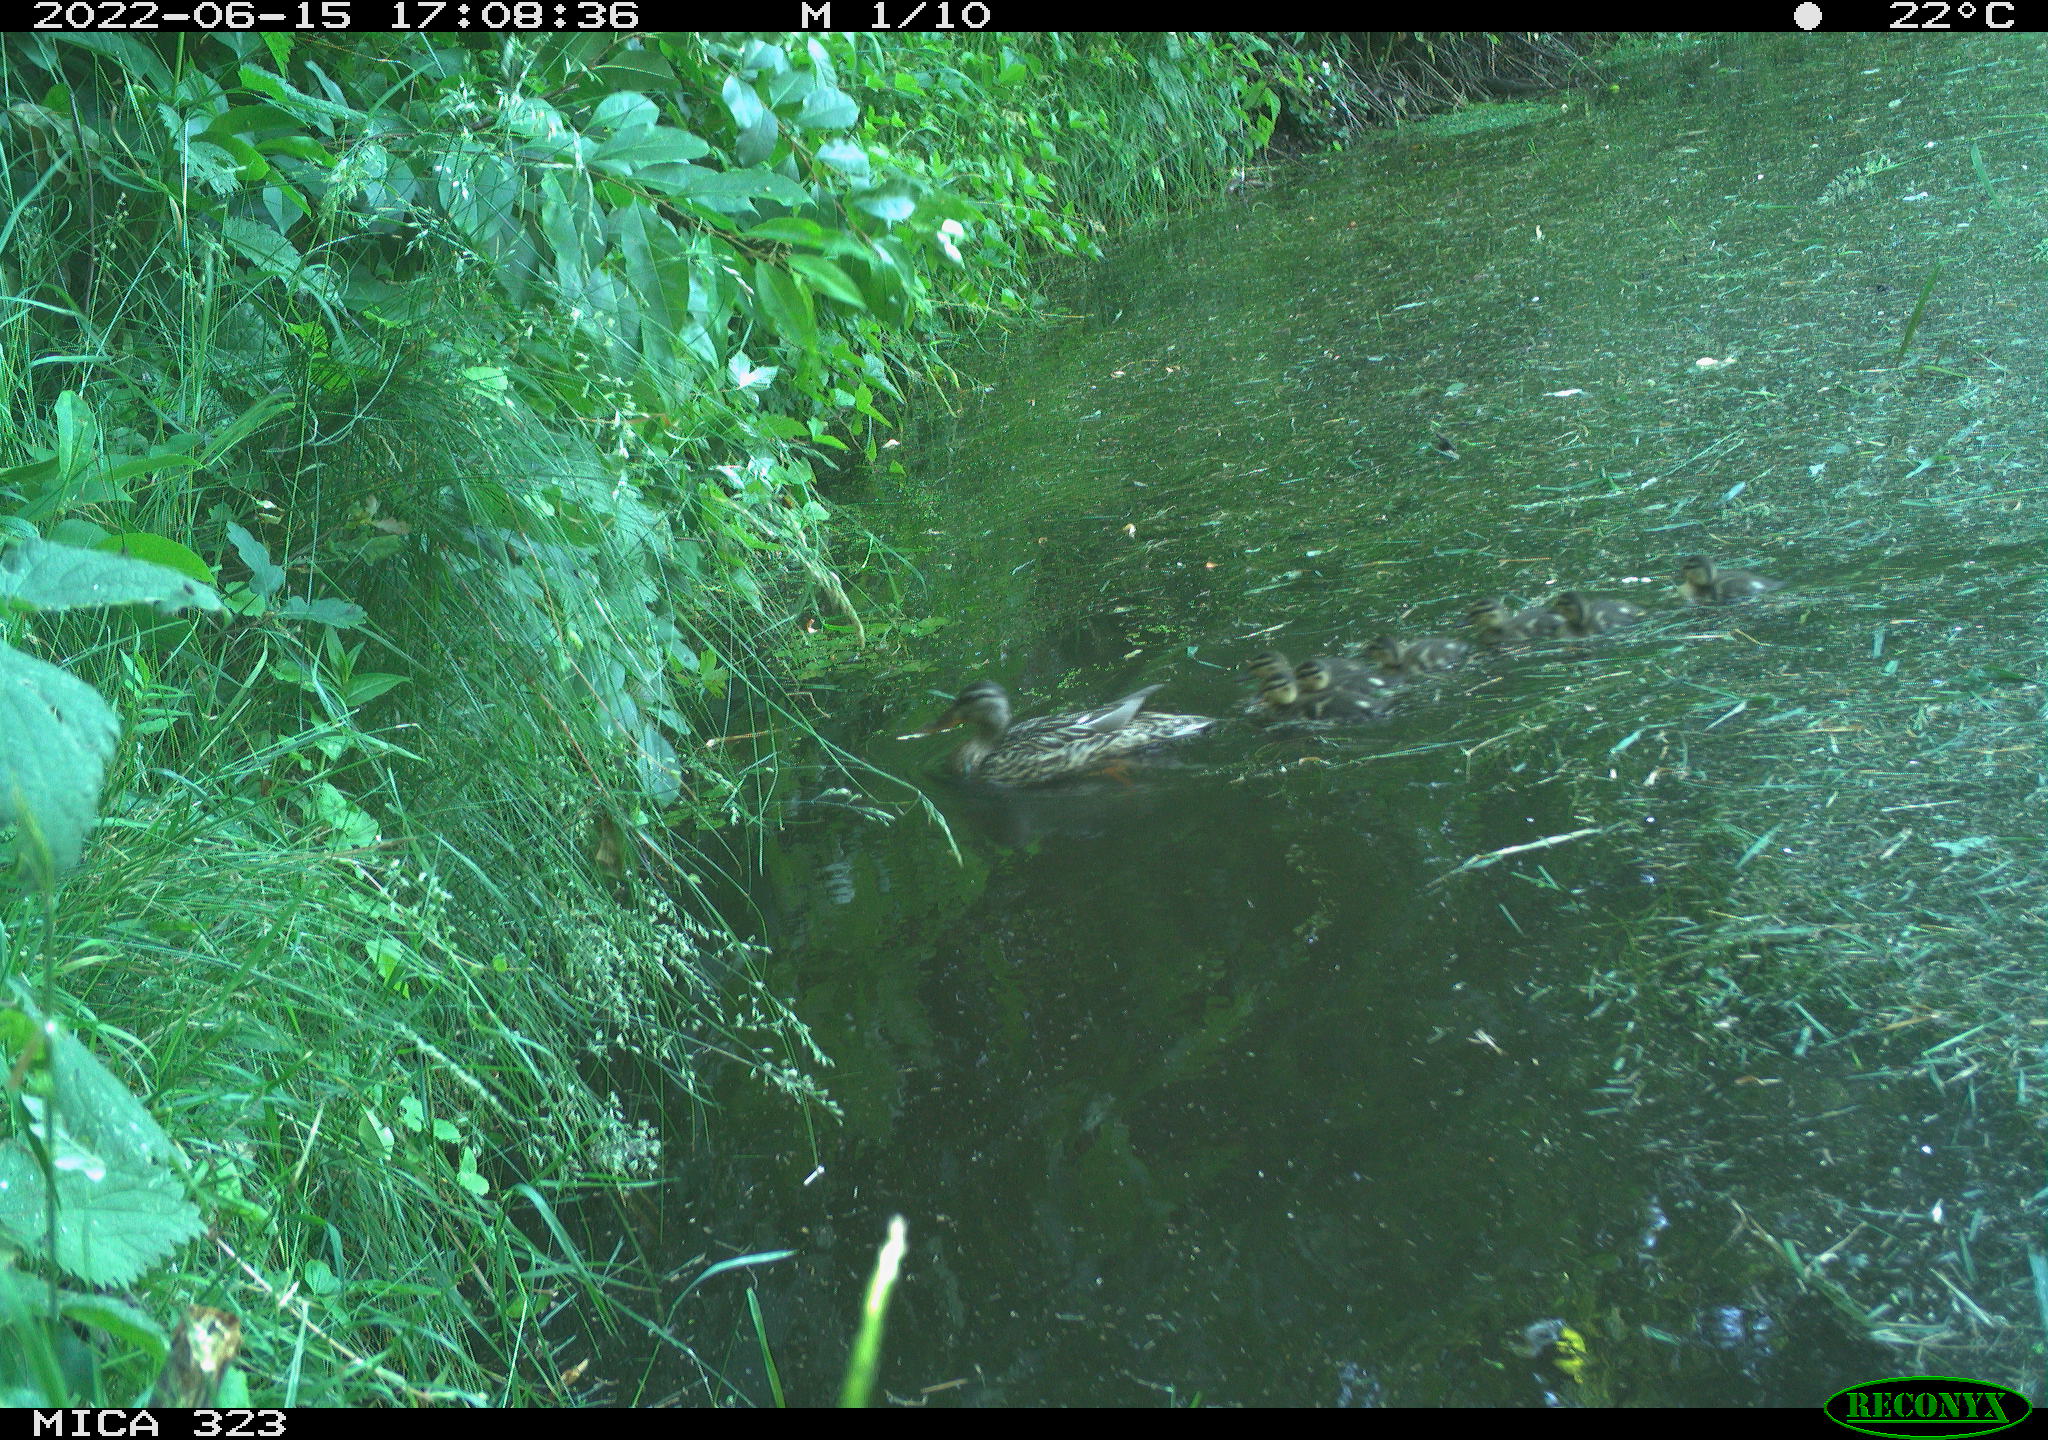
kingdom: Animalia
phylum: Chordata
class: Aves
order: Anseriformes
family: Anatidae
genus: Anas
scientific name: Anas platyrhynchos
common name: Mallard
